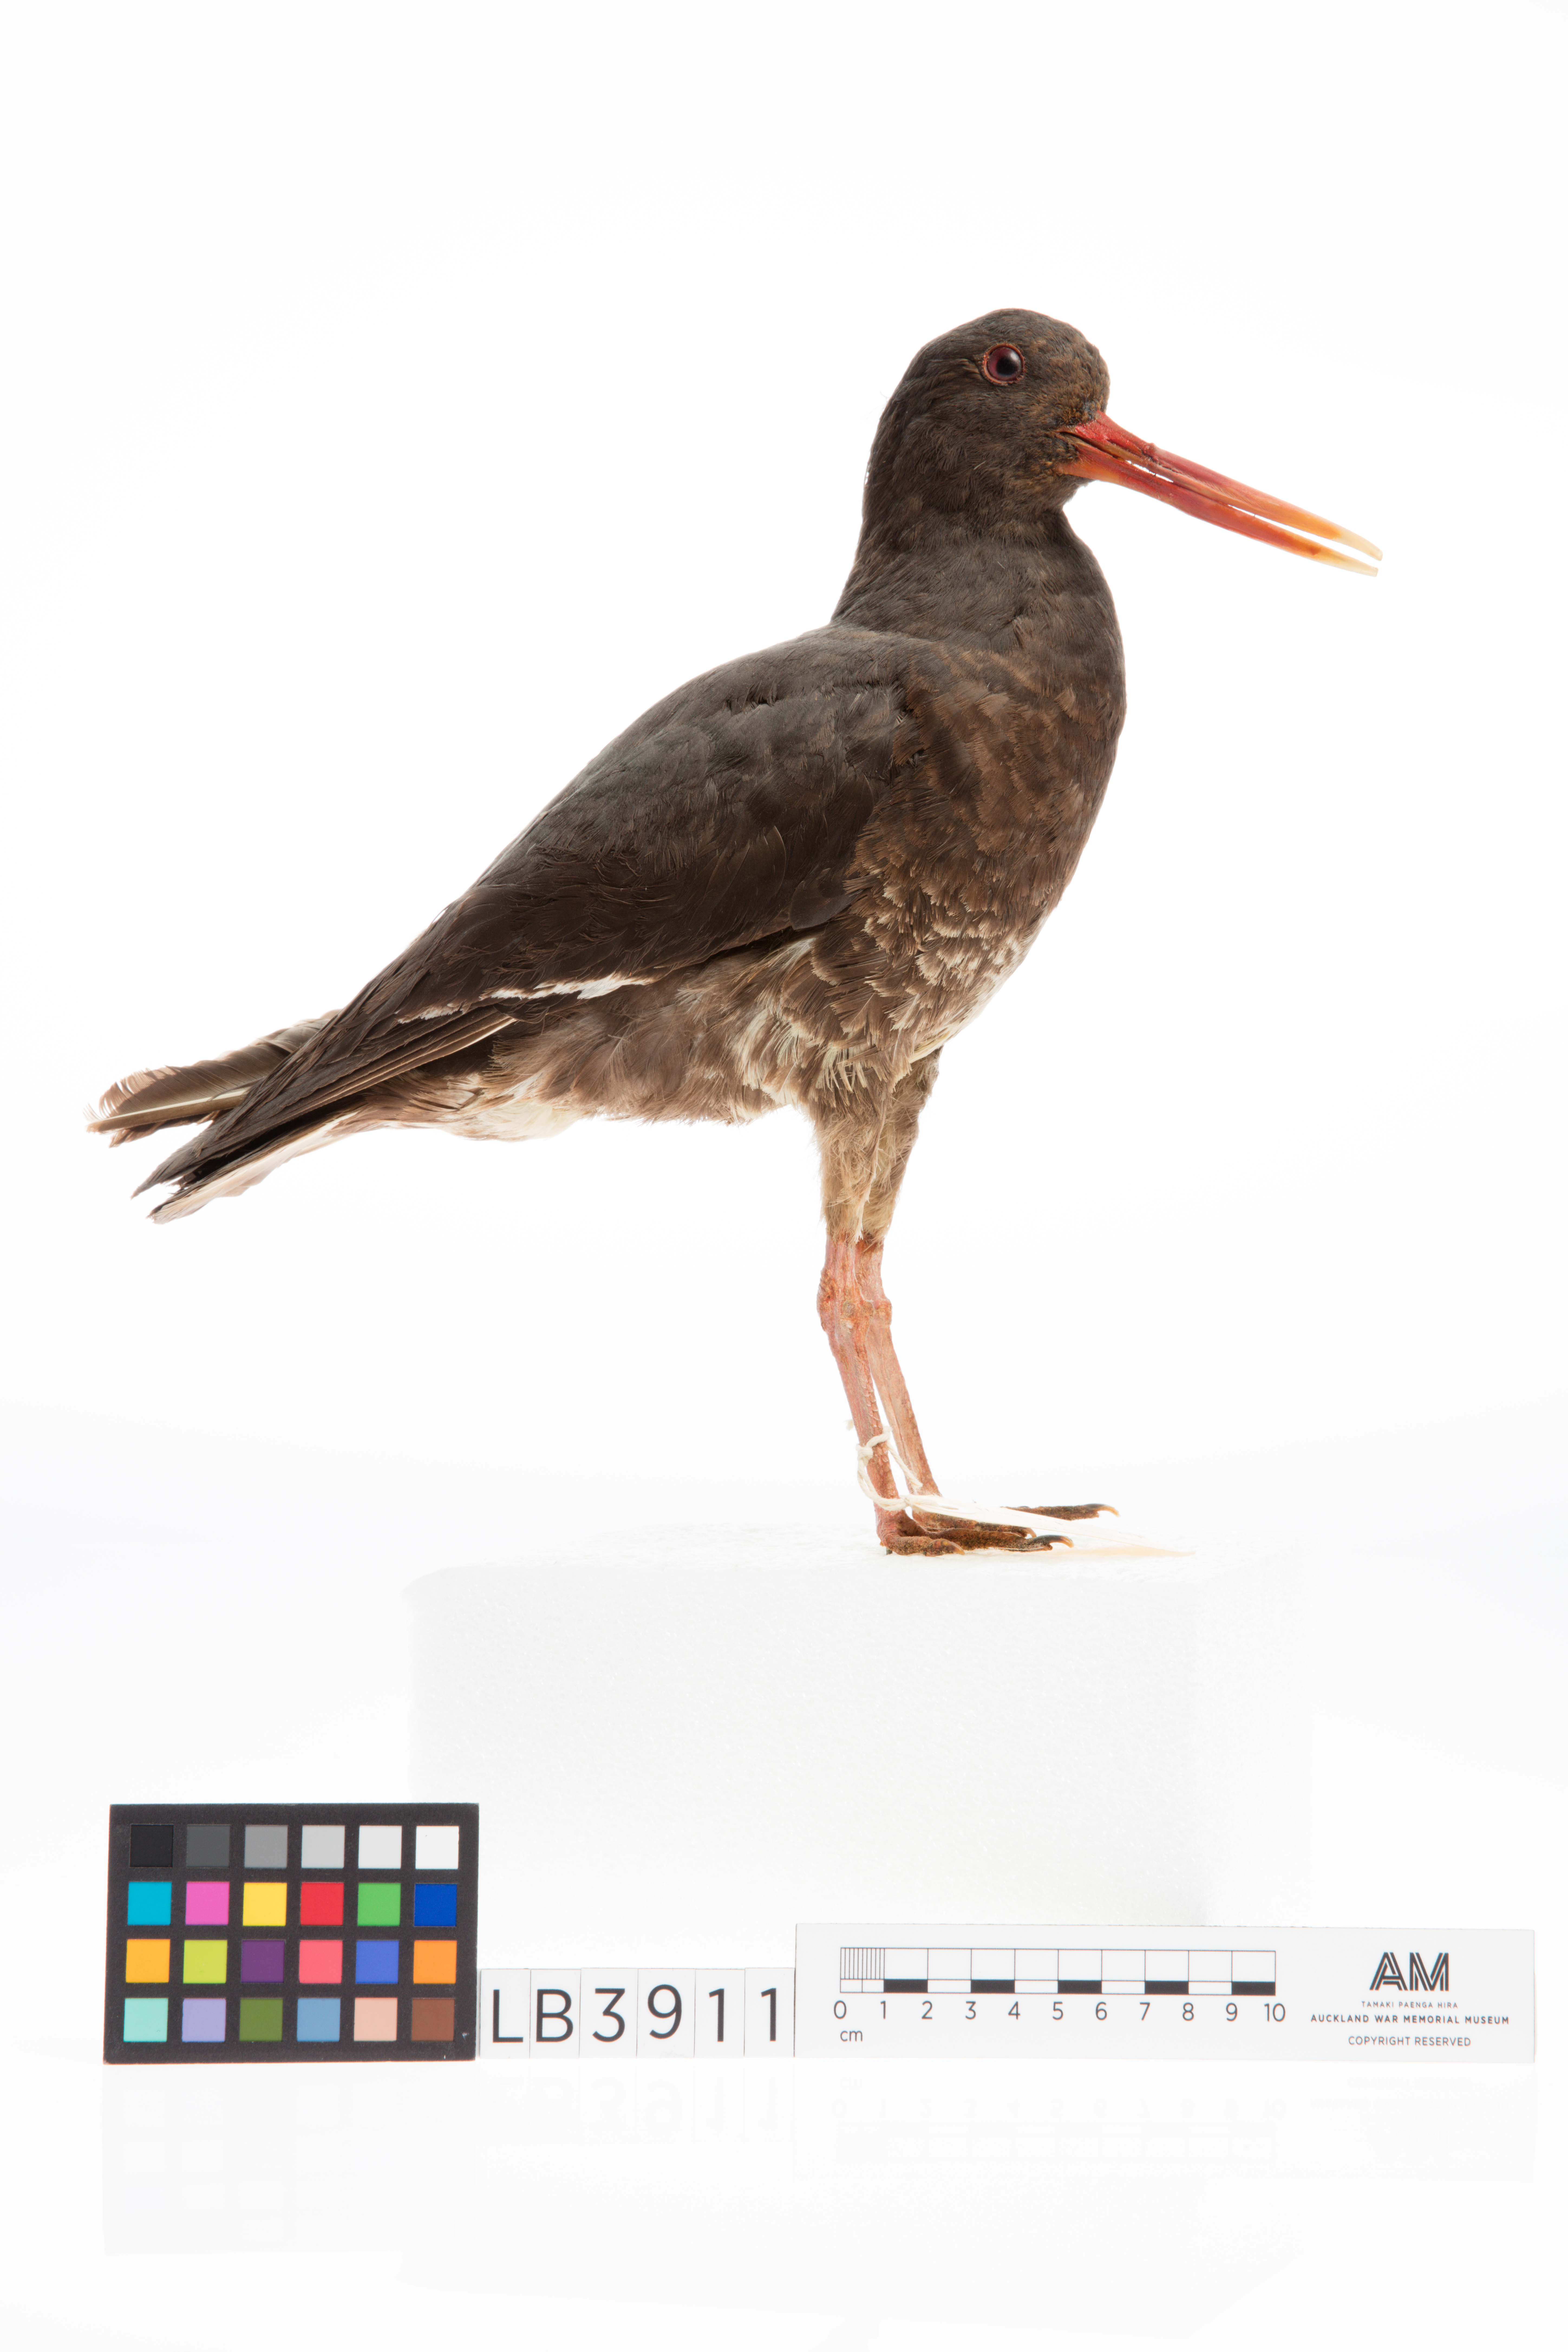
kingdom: Animalia
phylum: Chordata
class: Aves
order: Charadriiformes
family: Haematopodidae
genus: Haematopus
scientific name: Haematopus unicolor
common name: Variable oystercatcher
